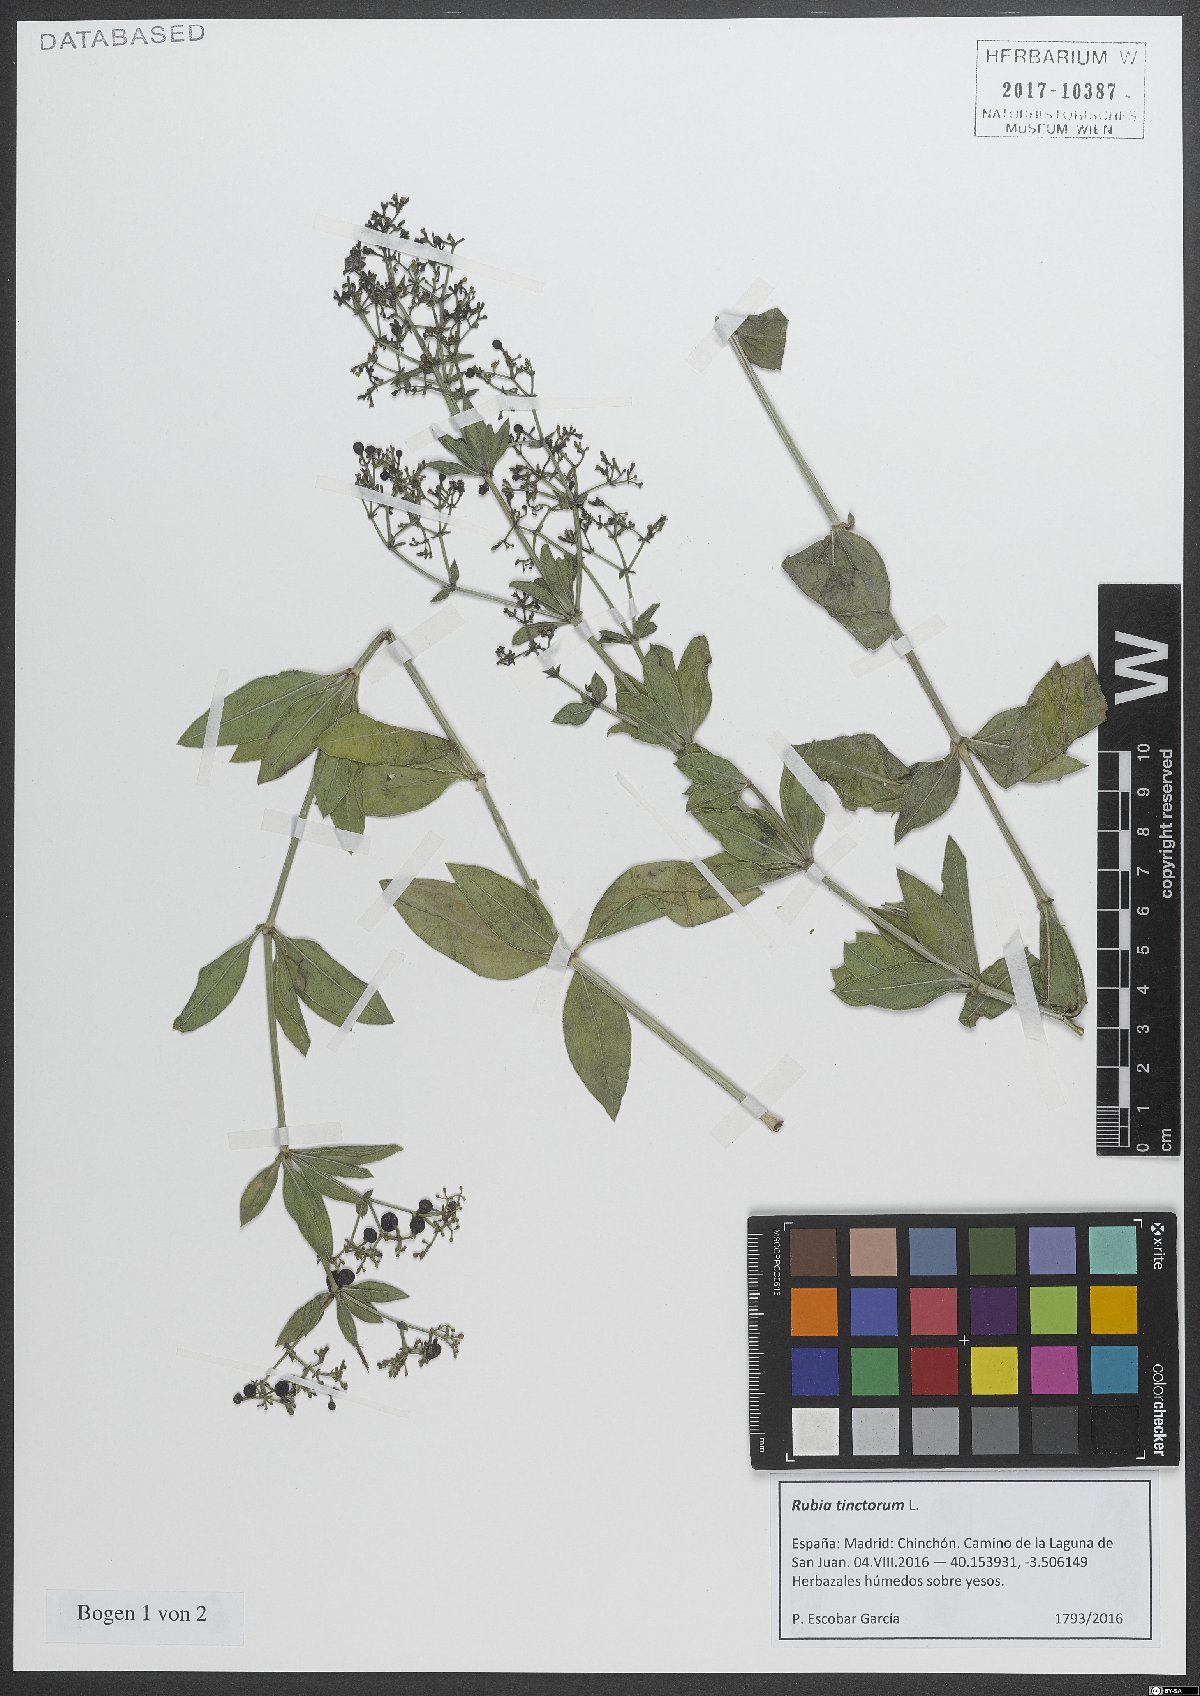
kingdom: Plantae
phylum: Tracheophyta
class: Magnoliopsida
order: Gentianales
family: Rubiaceae
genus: Rubia
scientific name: Rubia tinctorum
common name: Dyer's madder
